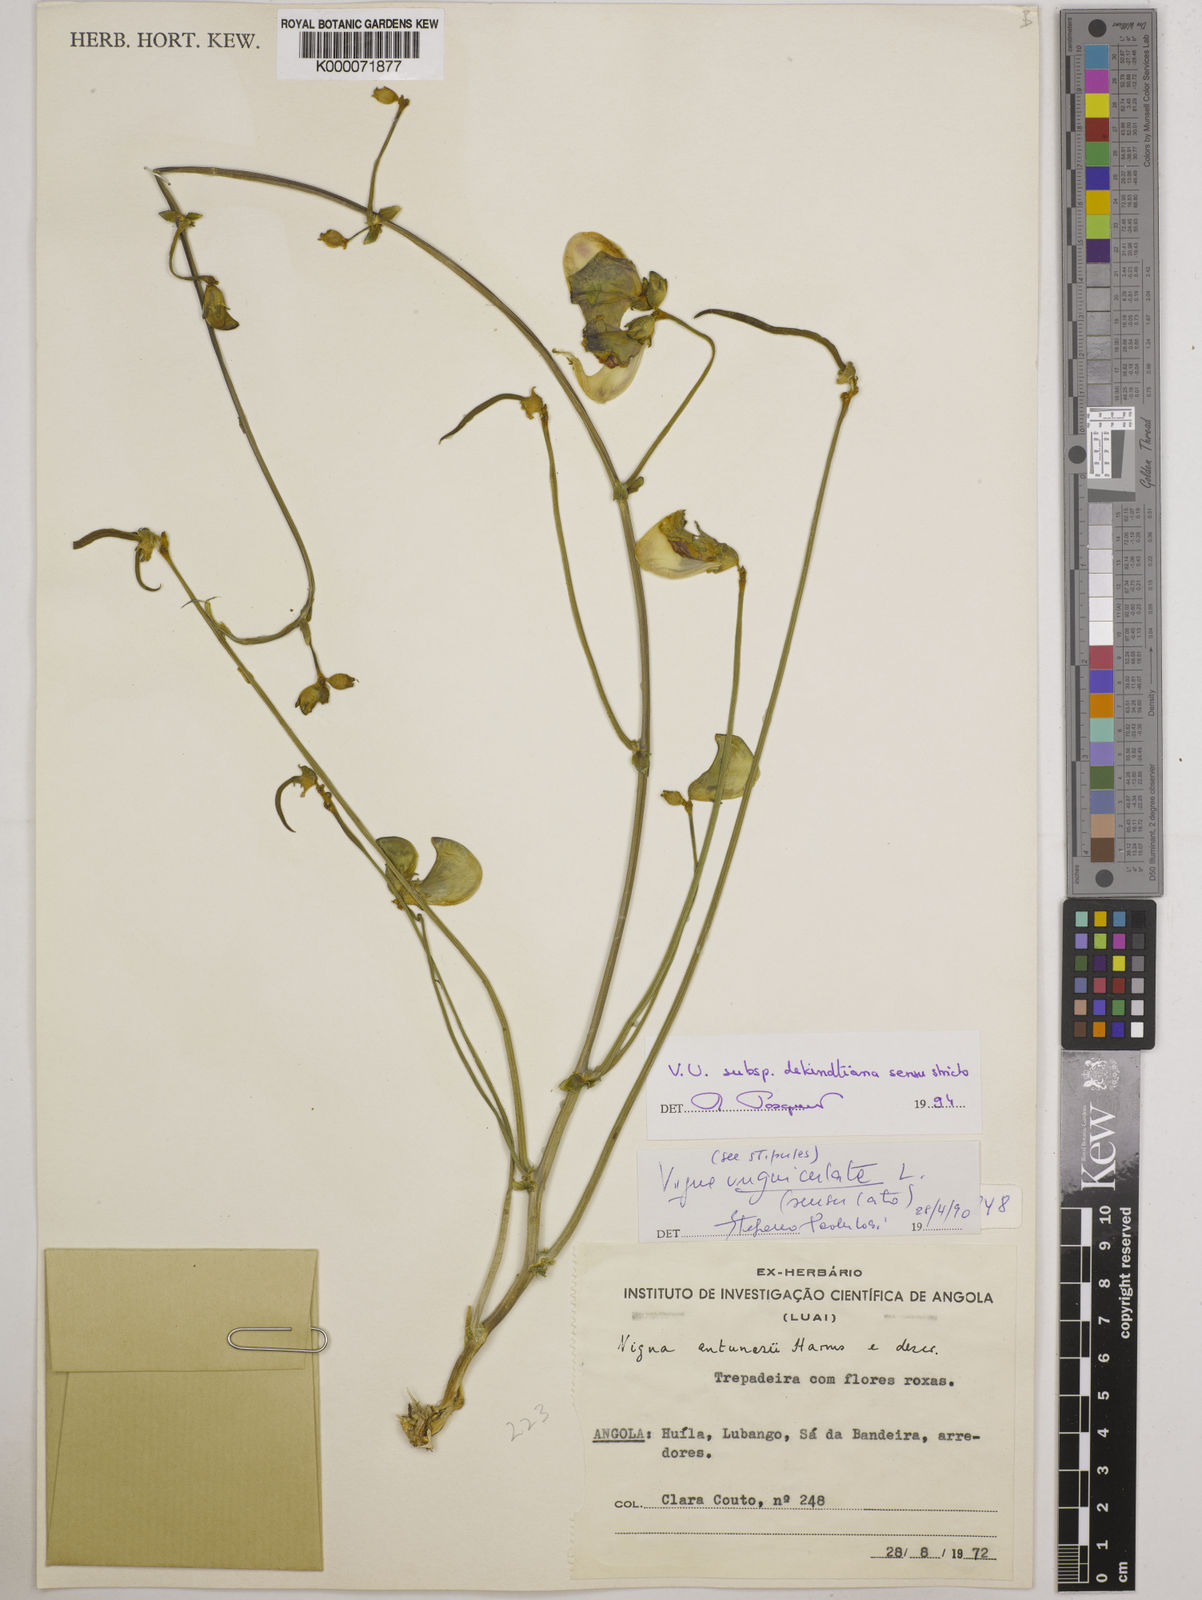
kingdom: Plantae
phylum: Tracheophyta
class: Magnoliopsida
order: Fabales
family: Fabaceae
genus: Vigna
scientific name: Vigna unguiculata
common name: Cowpea
